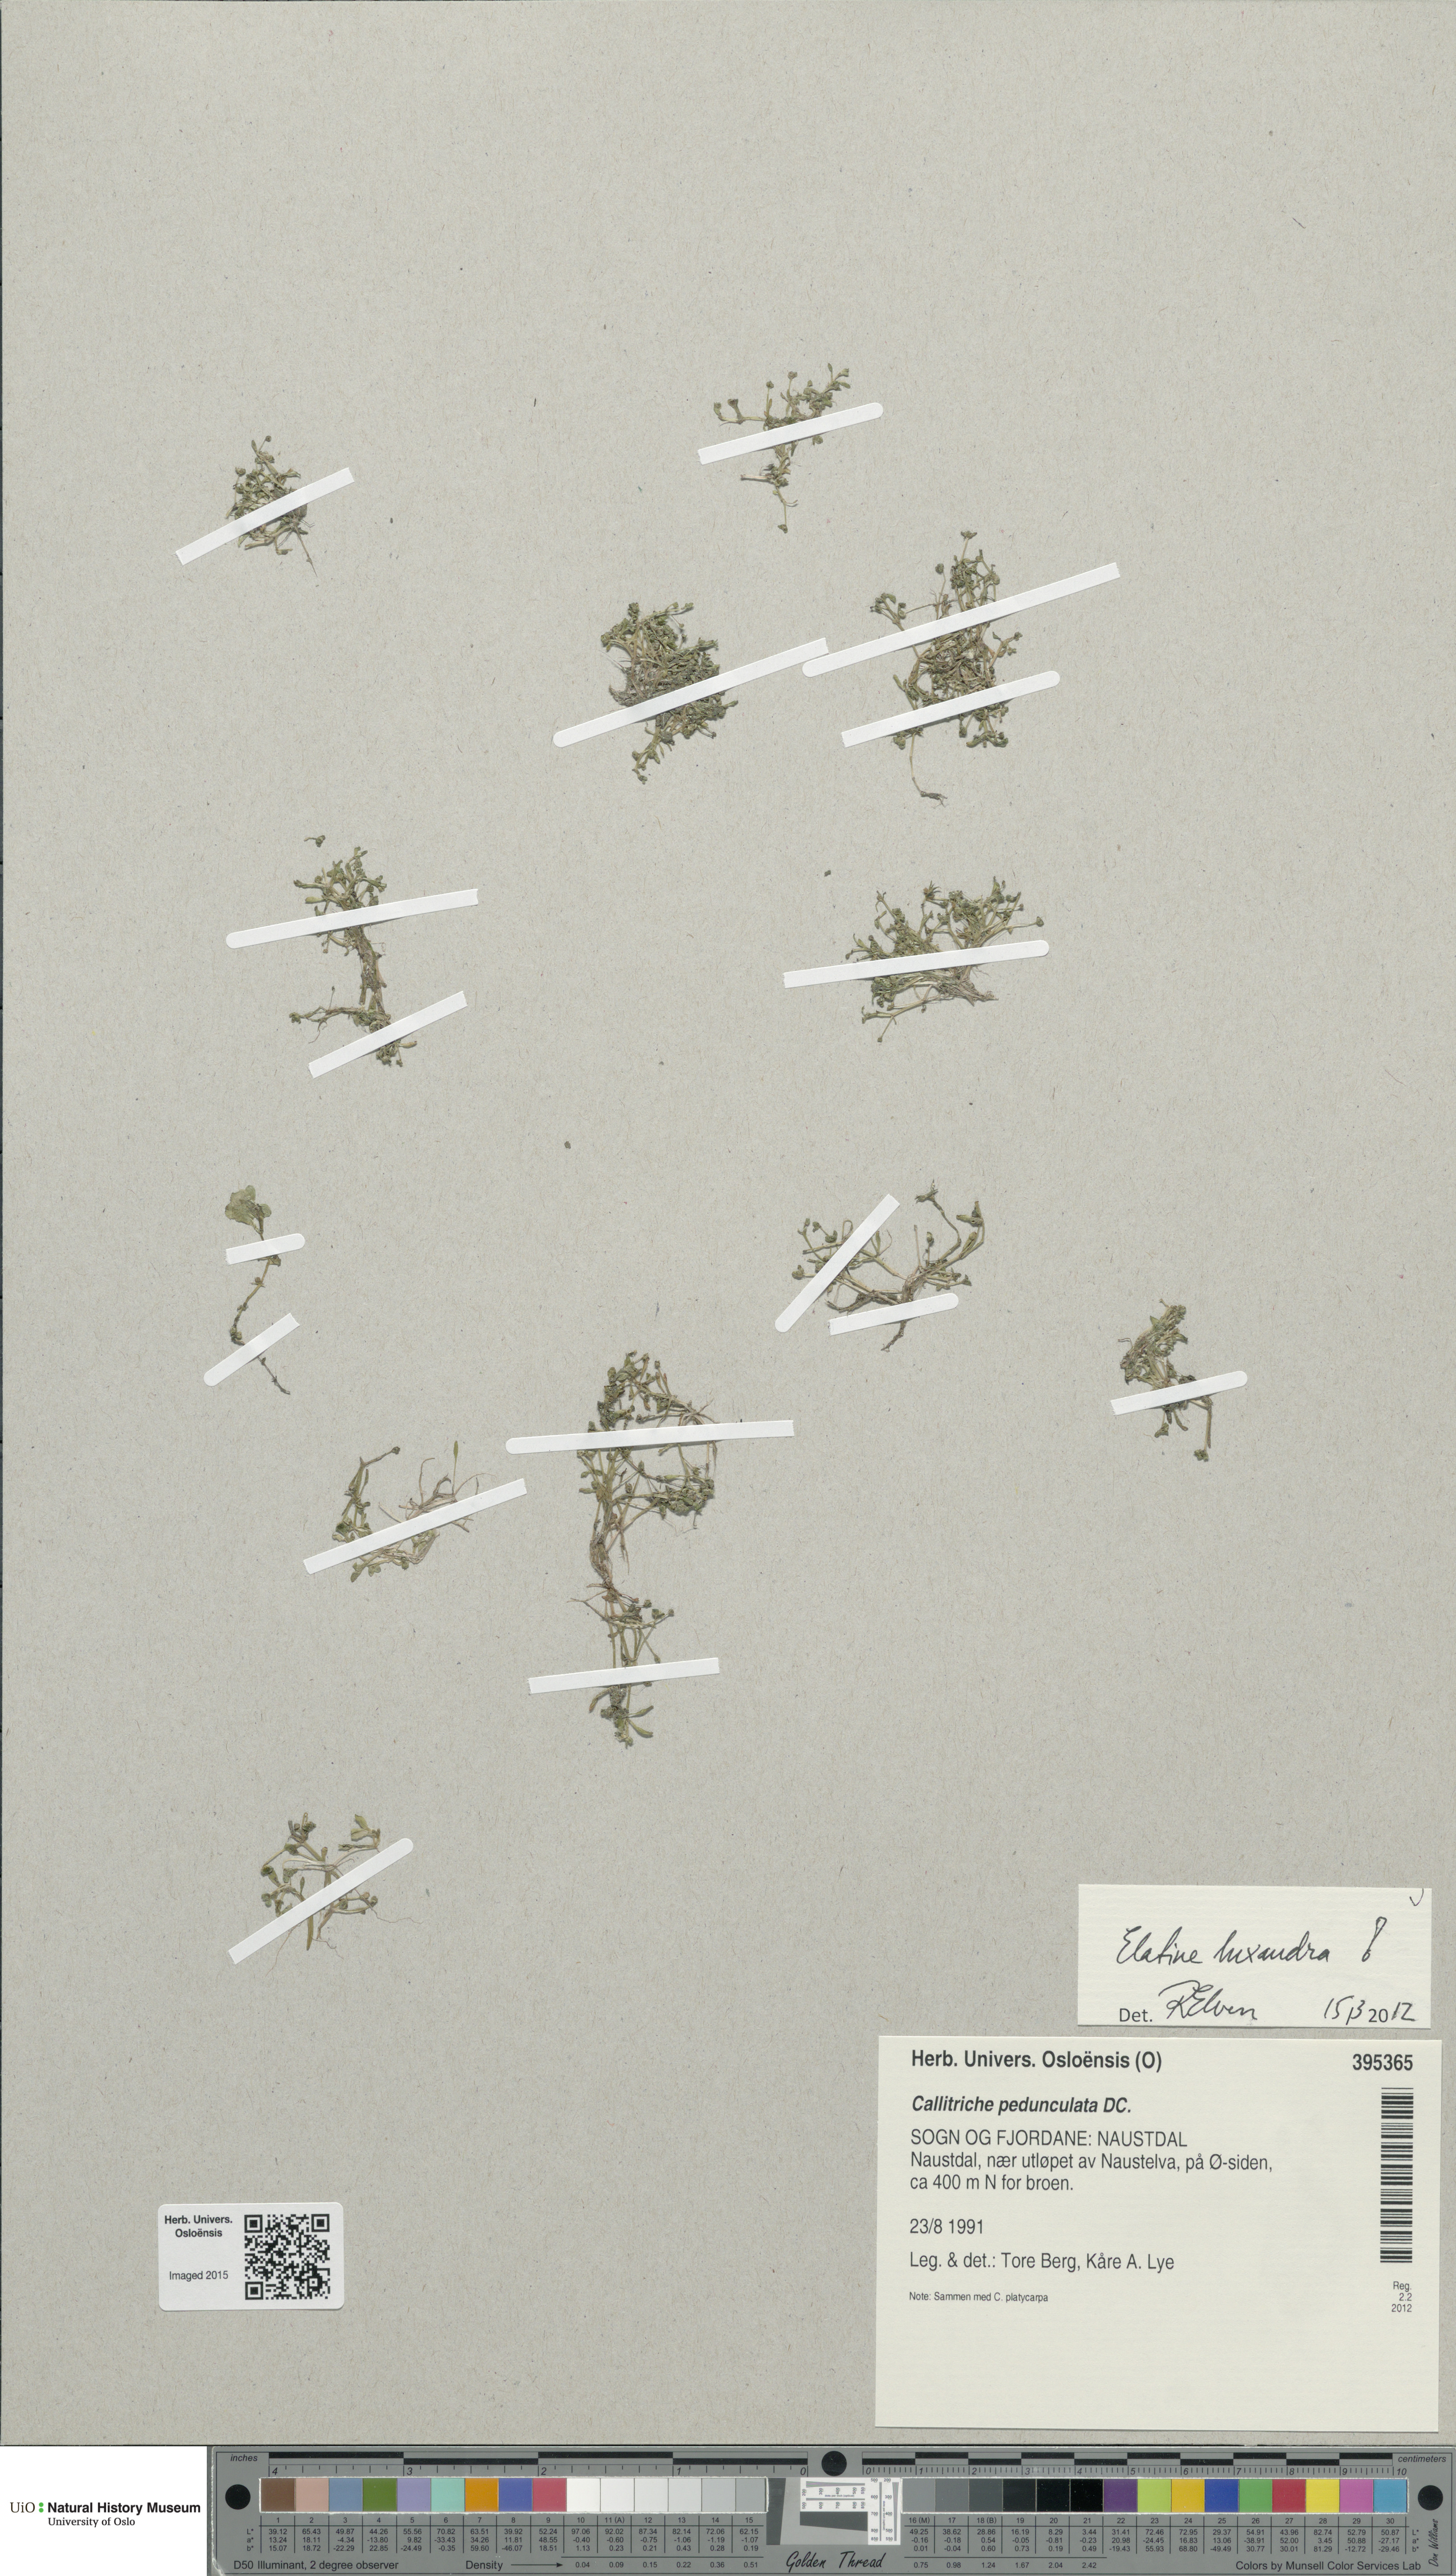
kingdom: Plantae
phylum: Tracheophyta
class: Magnoliopsida
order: Malpighiales
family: Elatinaceae
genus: Elatine
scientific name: Elatine hexandra
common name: Six-stamened waterwort
